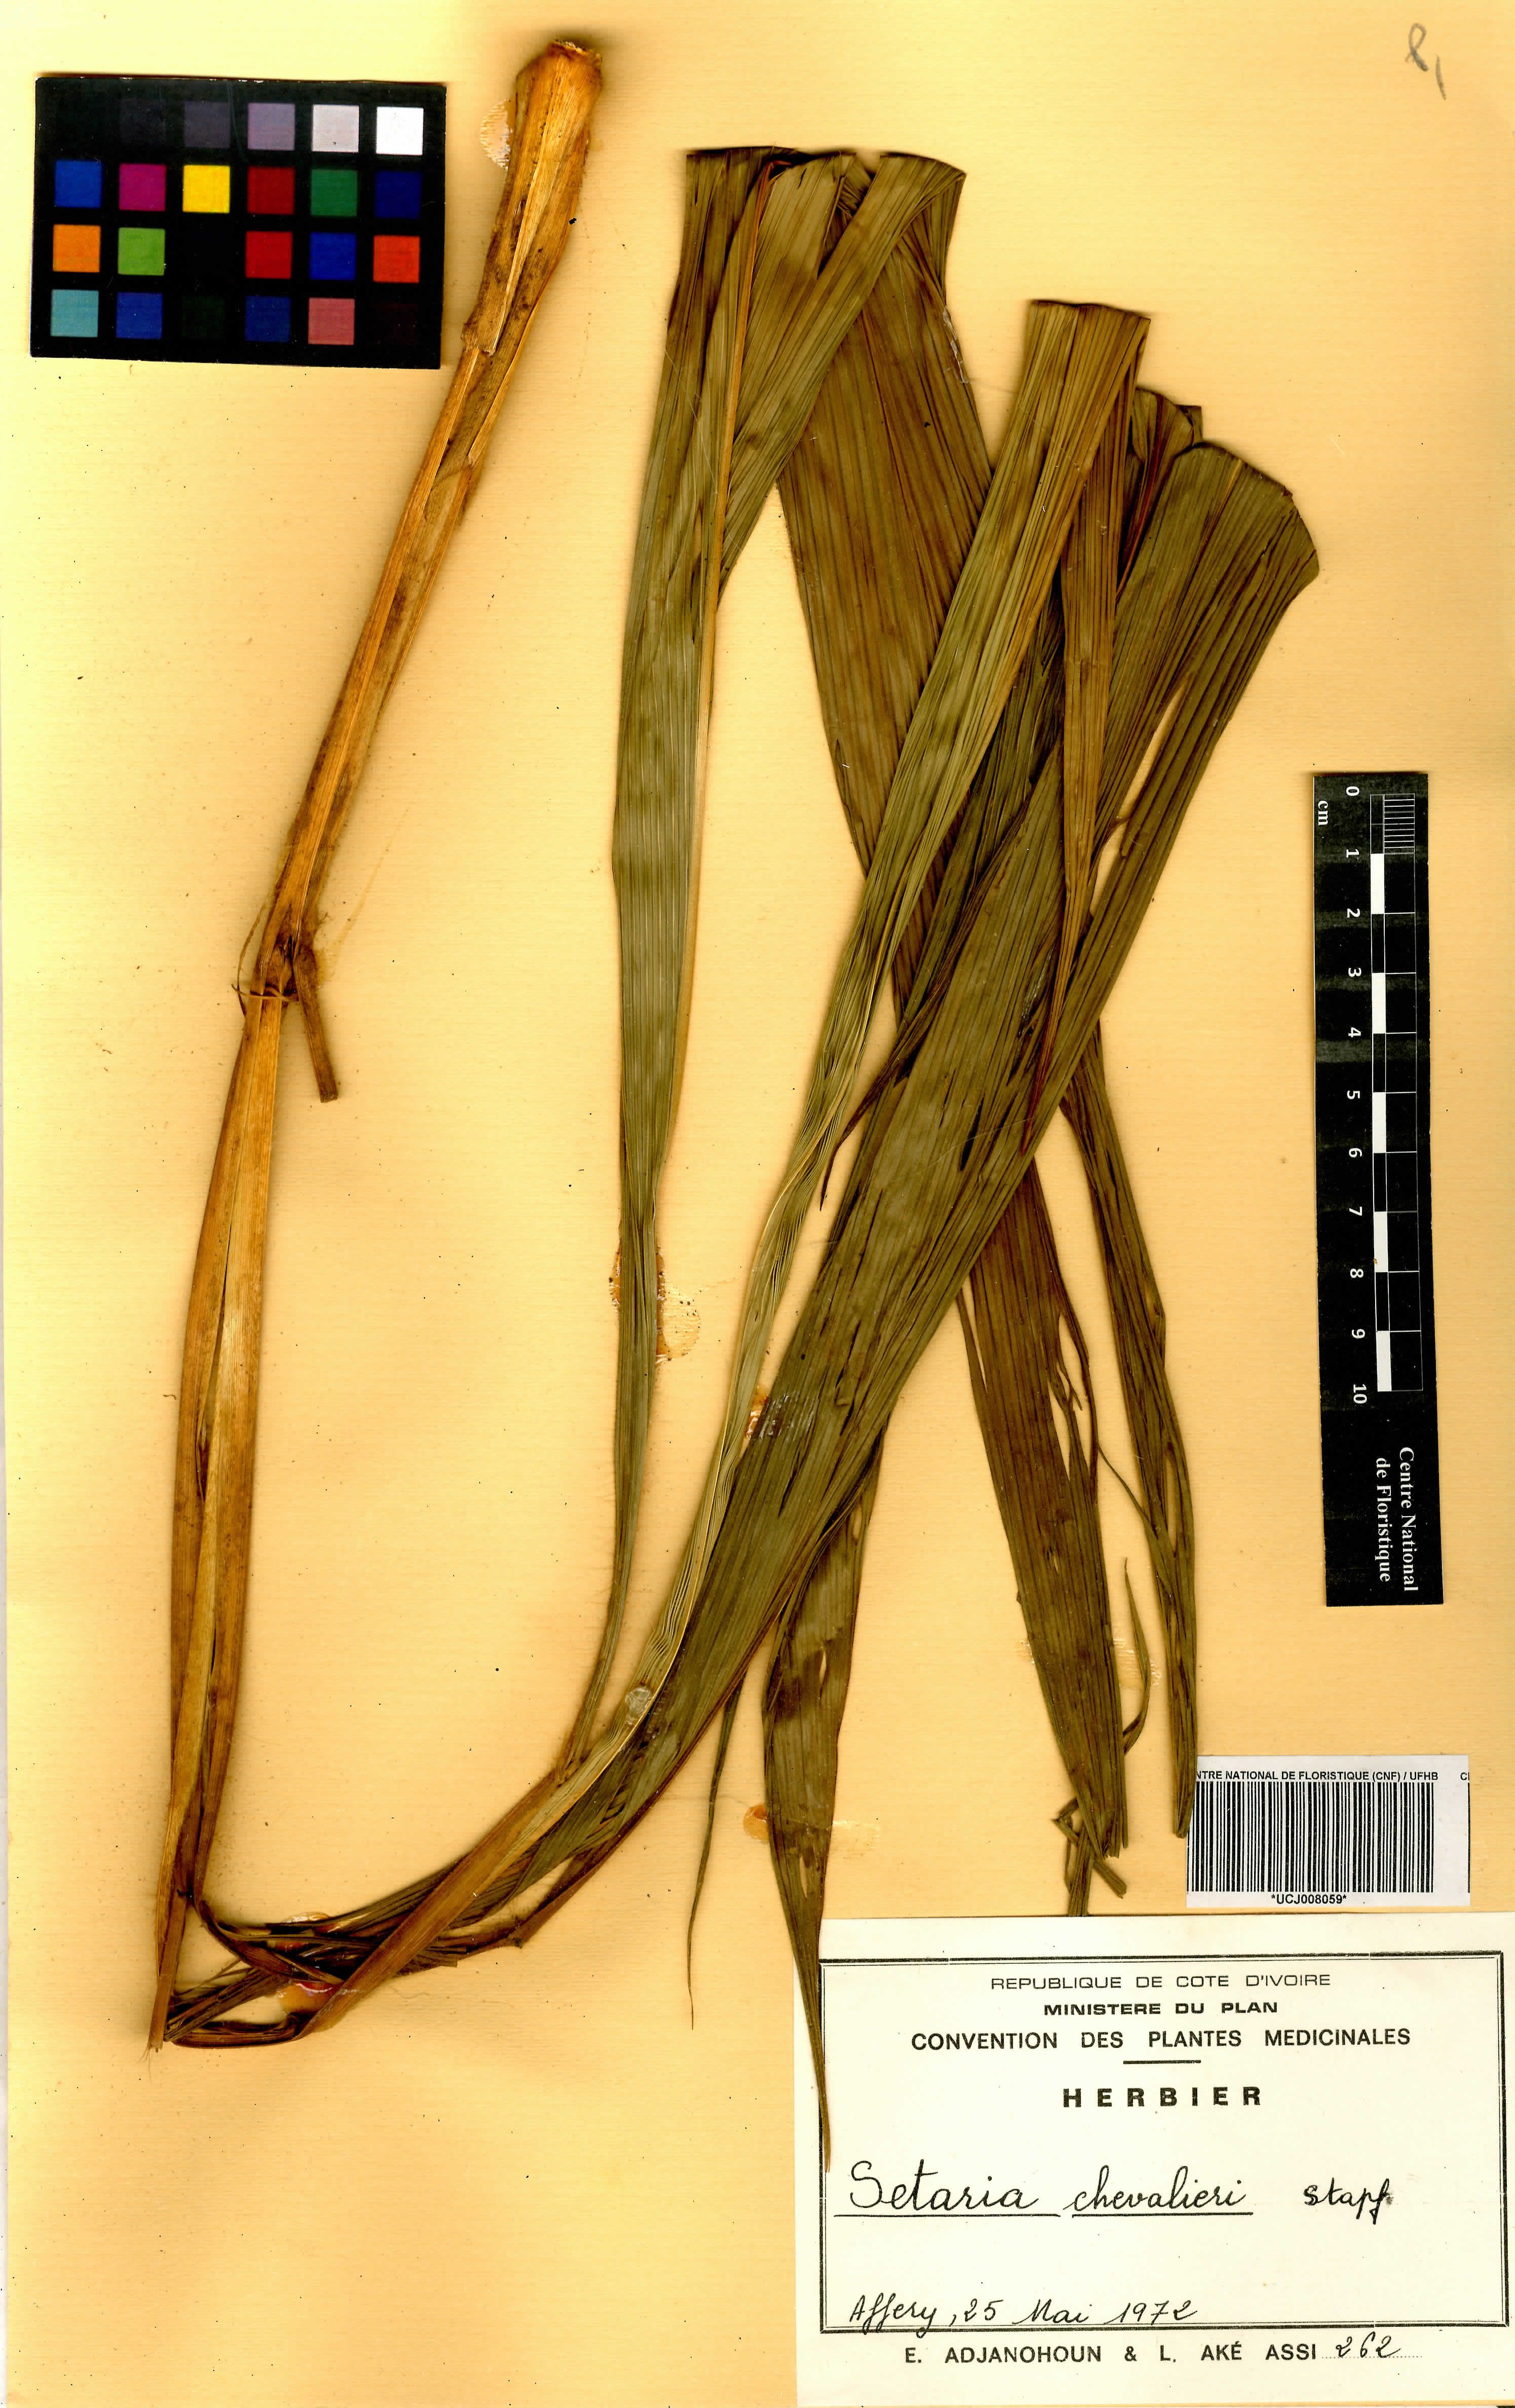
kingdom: Plantae
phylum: Tracheophyta
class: Liliopsida
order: Poales
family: Poaceae
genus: Setaria
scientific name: Setaria megaphylla
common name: Bigleaf bristlegrass
